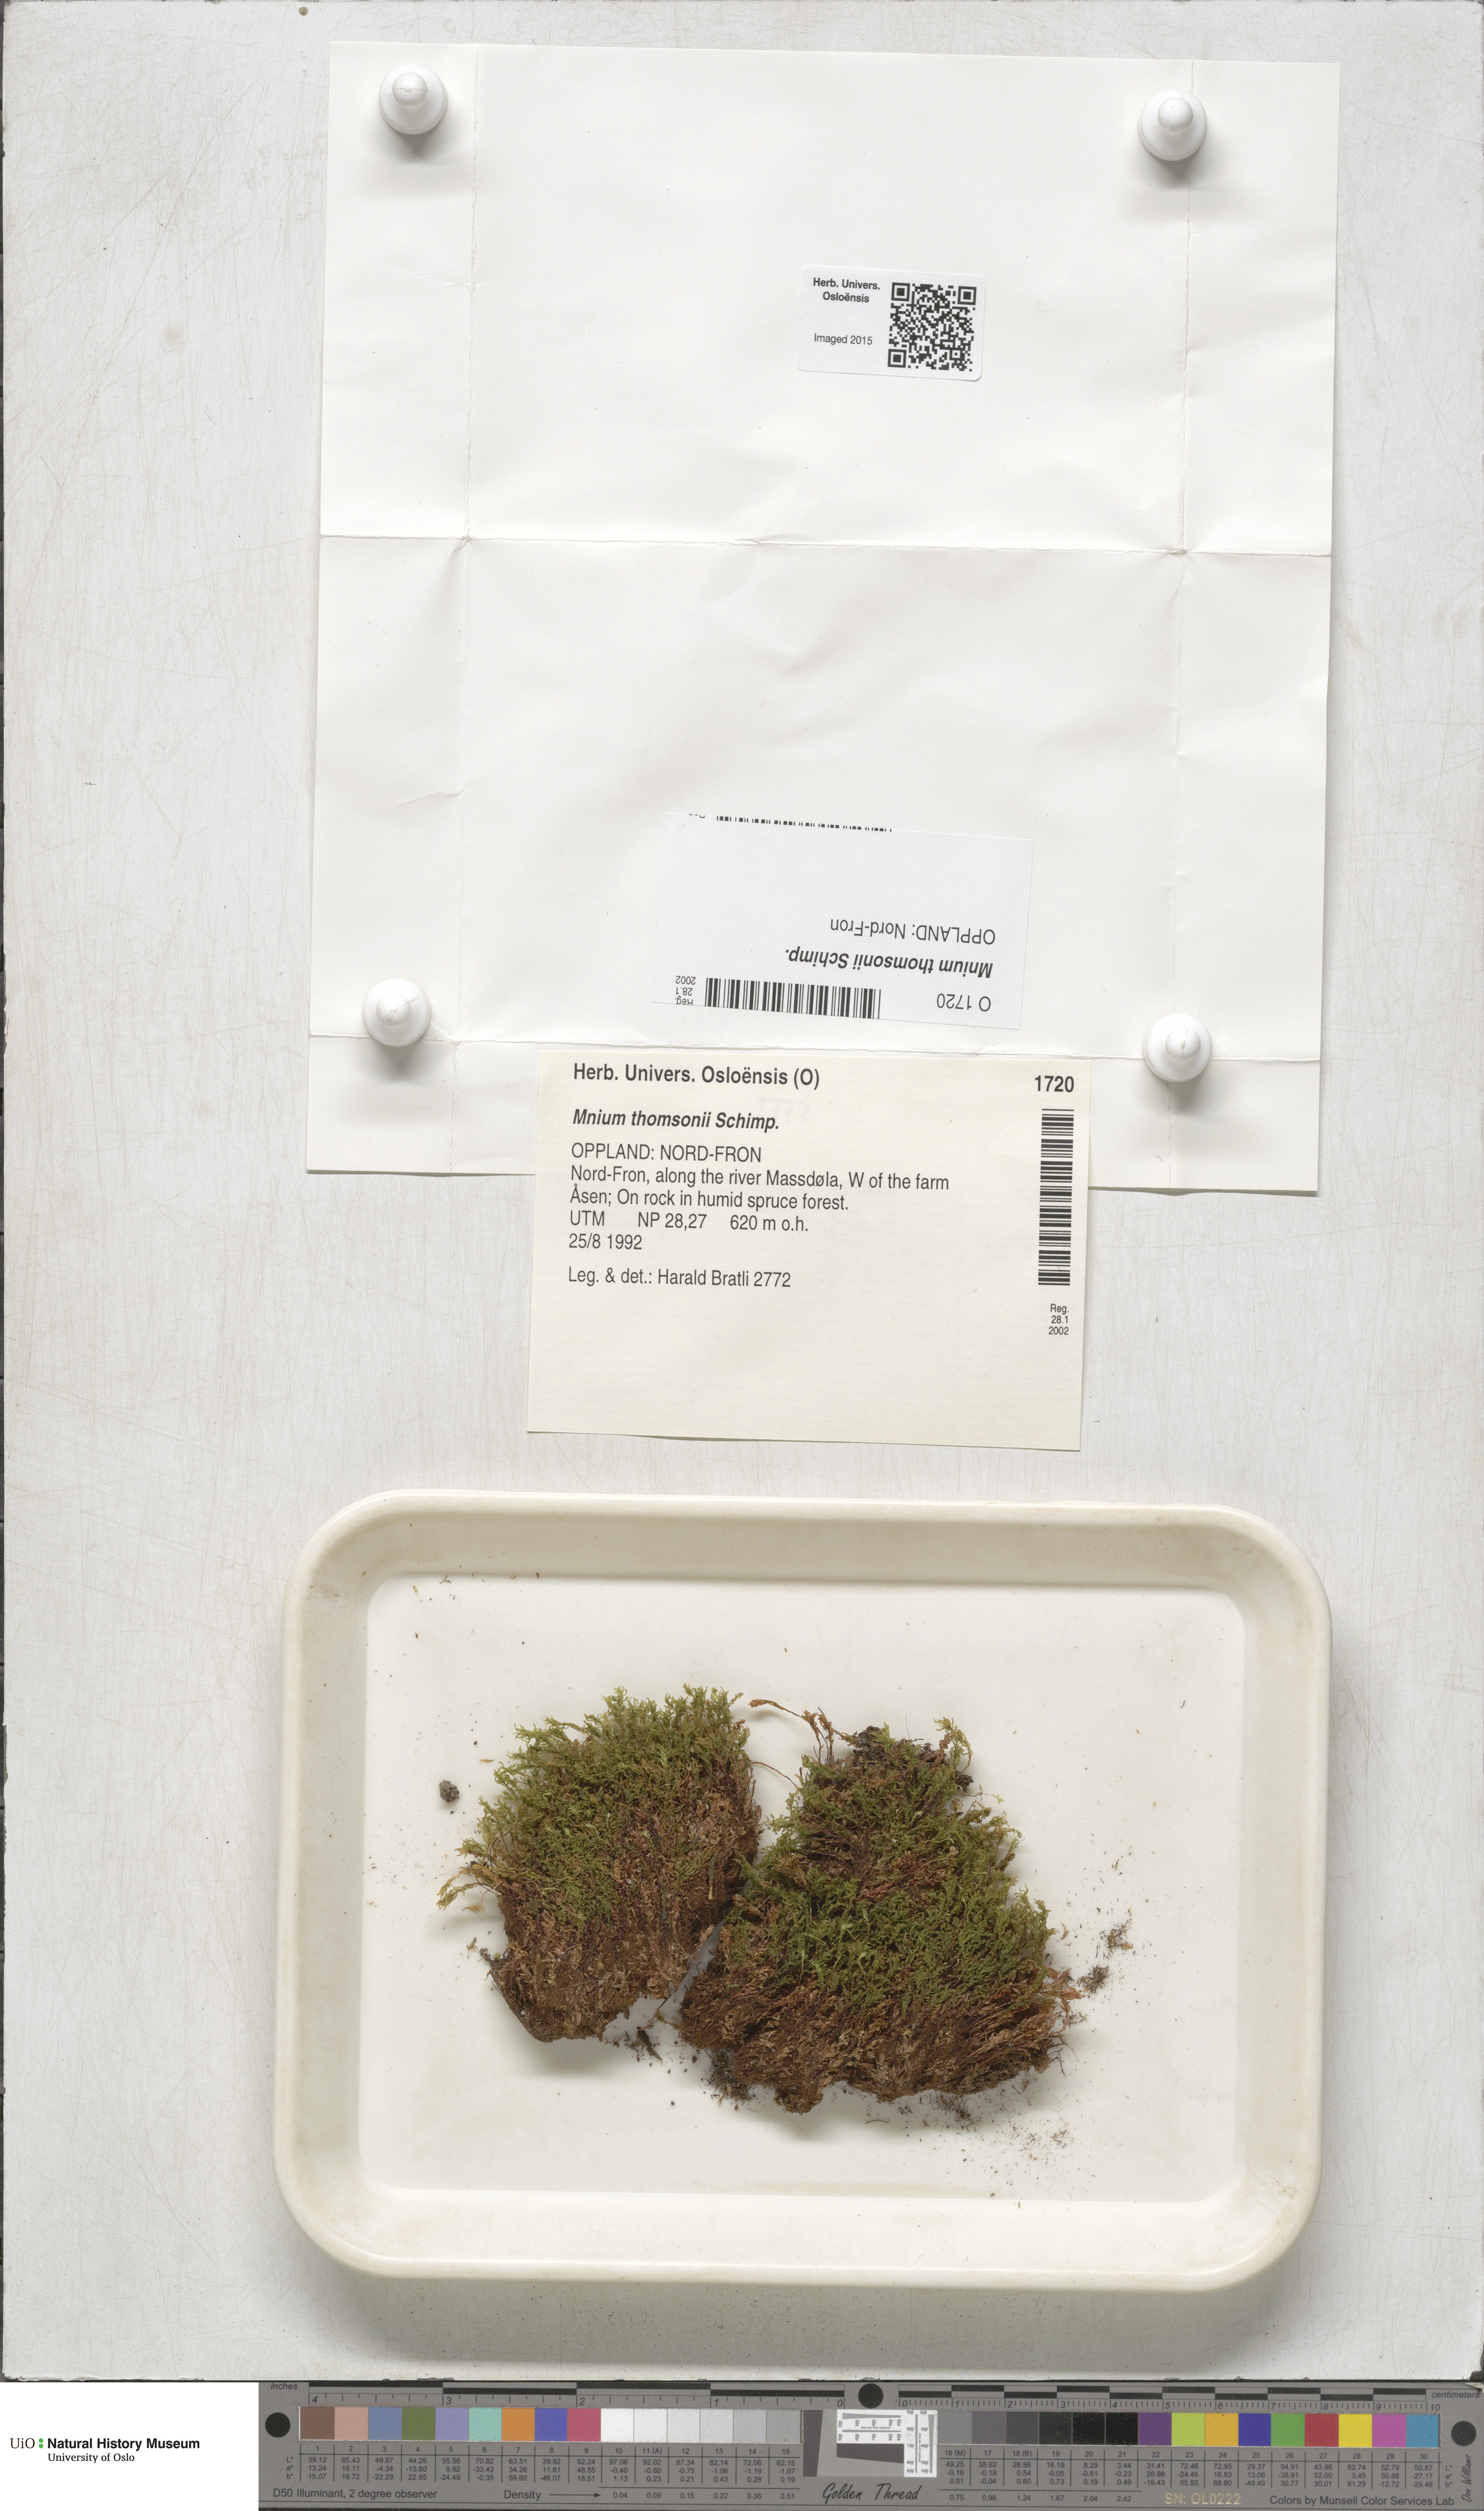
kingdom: Plantae
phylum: Bryophyta
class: Bryopsida
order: Bryales
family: Mniaceae
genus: Mnium
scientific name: Mnium thomsonii
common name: Thomson's leafy moss
